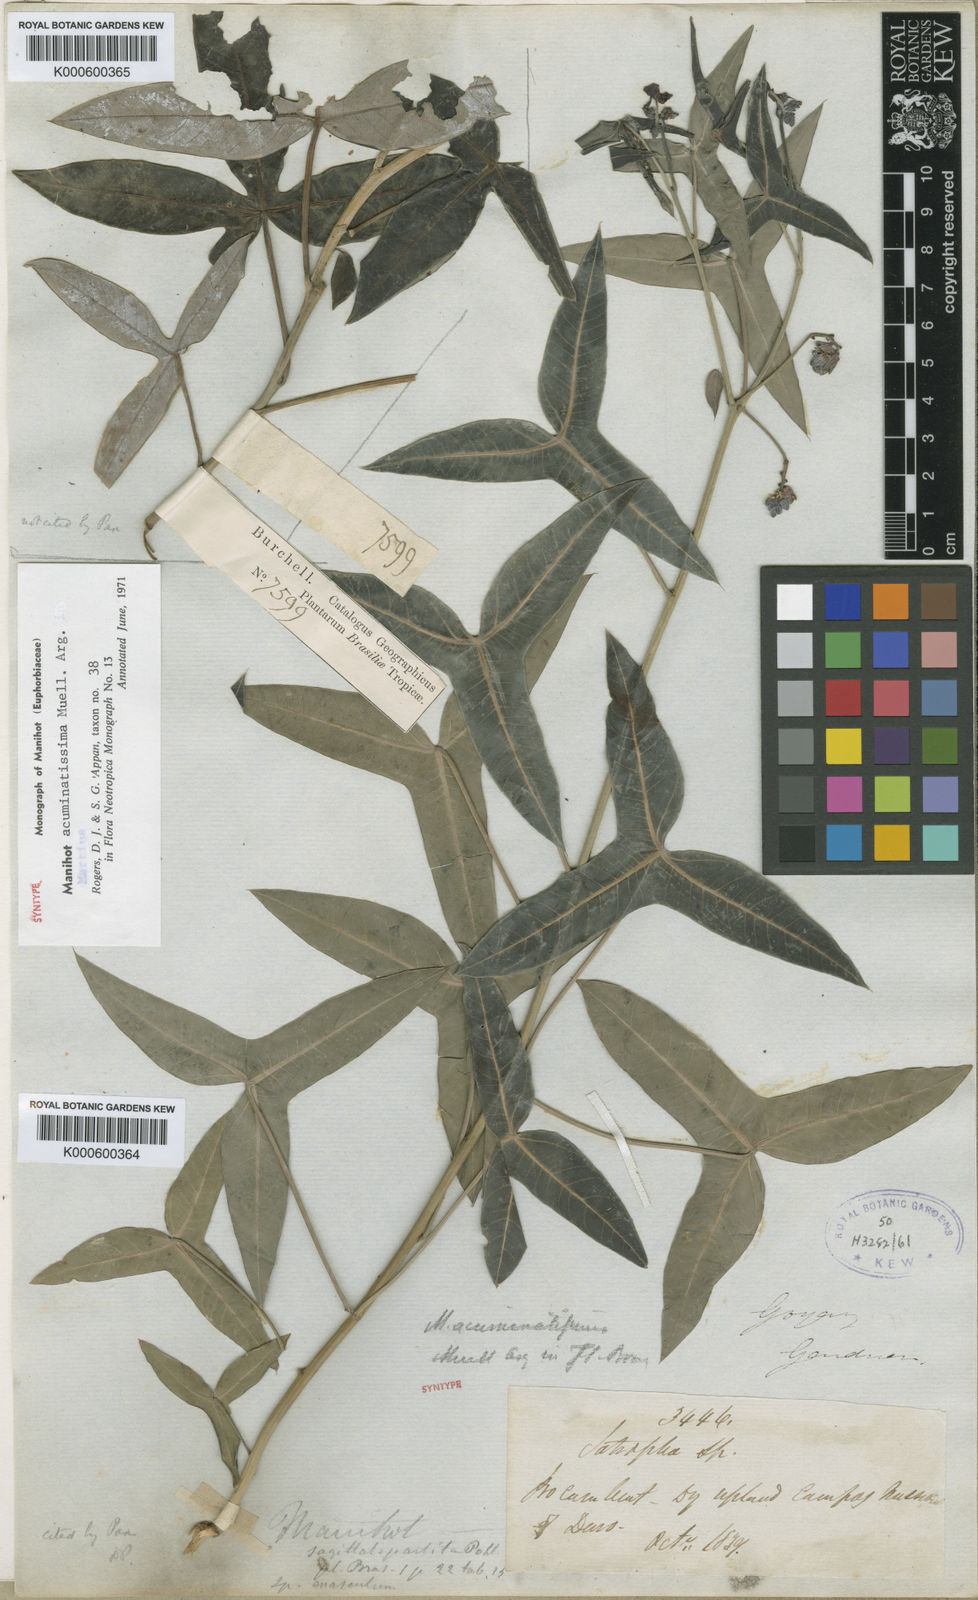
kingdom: Plantae
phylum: Tracheophyta
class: Magnoliopsida
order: Malpighiales
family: Euphorbiaceae
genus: Manihot
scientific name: Manihot
